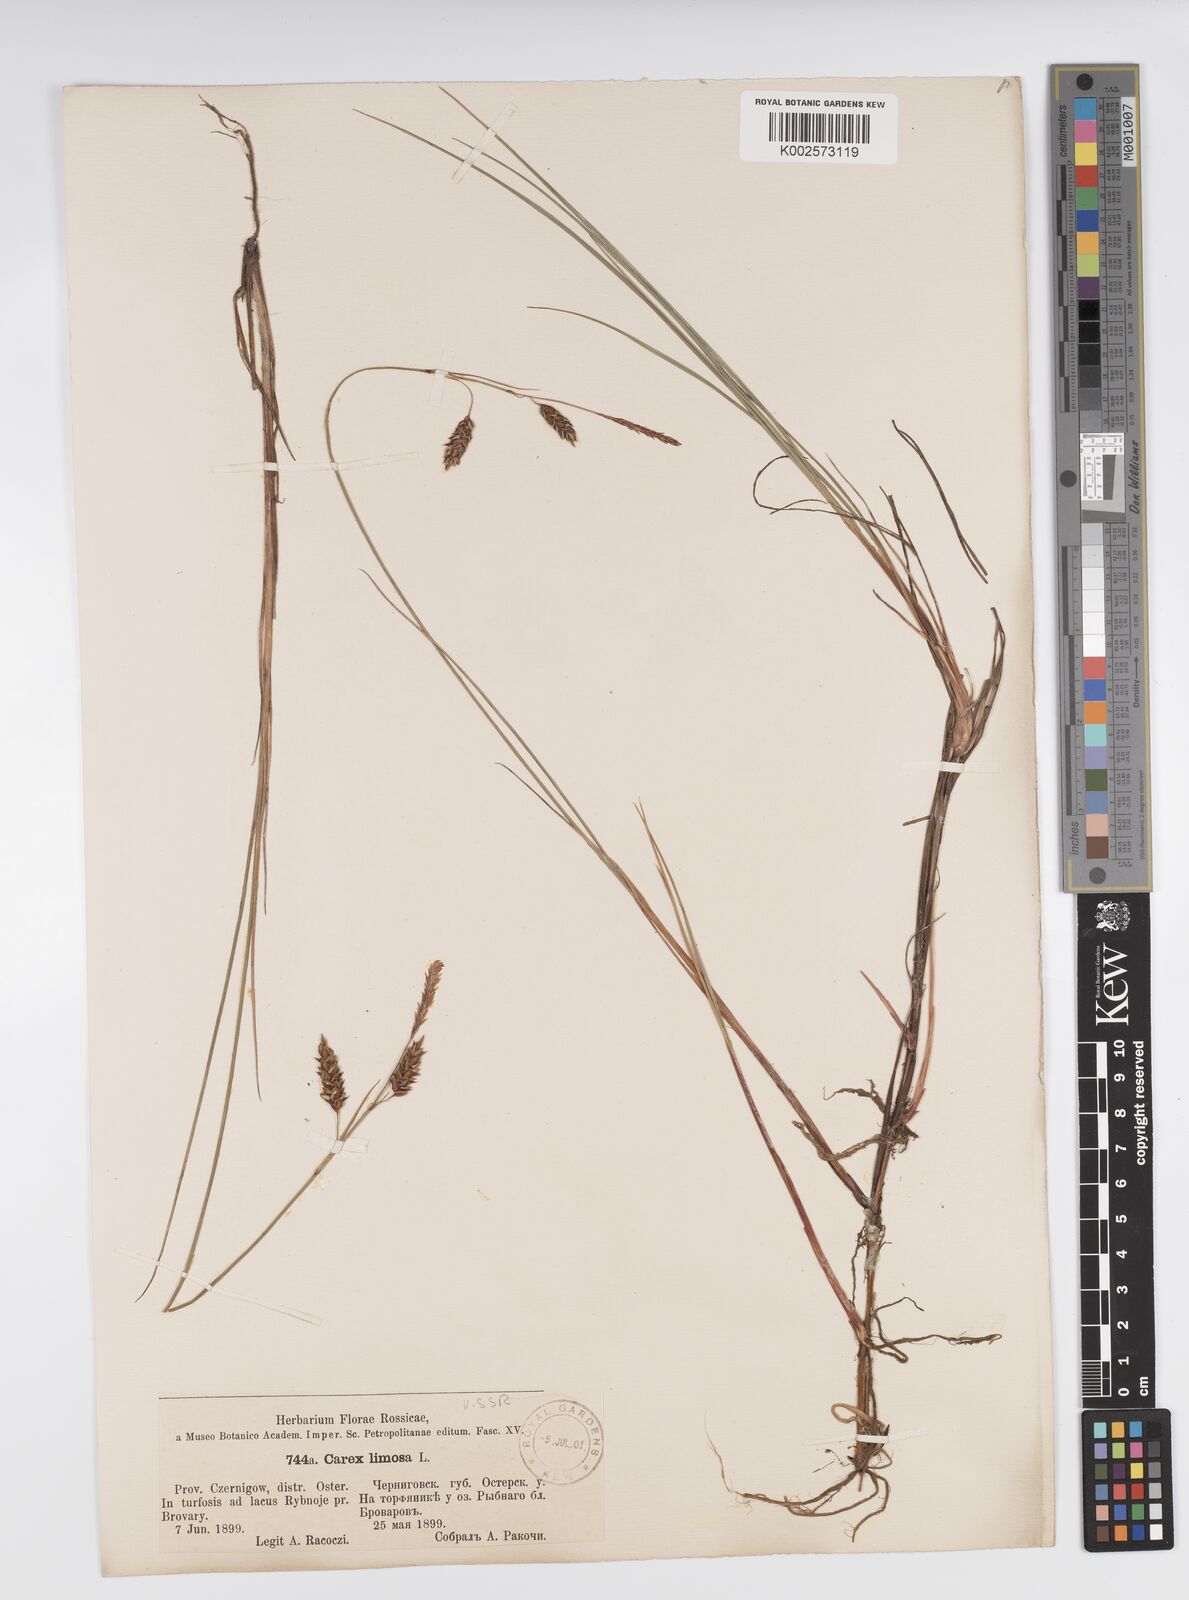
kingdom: Plantae
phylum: Tracheophyta
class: Liliopsida
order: Poales
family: Cyperaceae
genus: Carex
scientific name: Carex limosa
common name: Bog sedge
